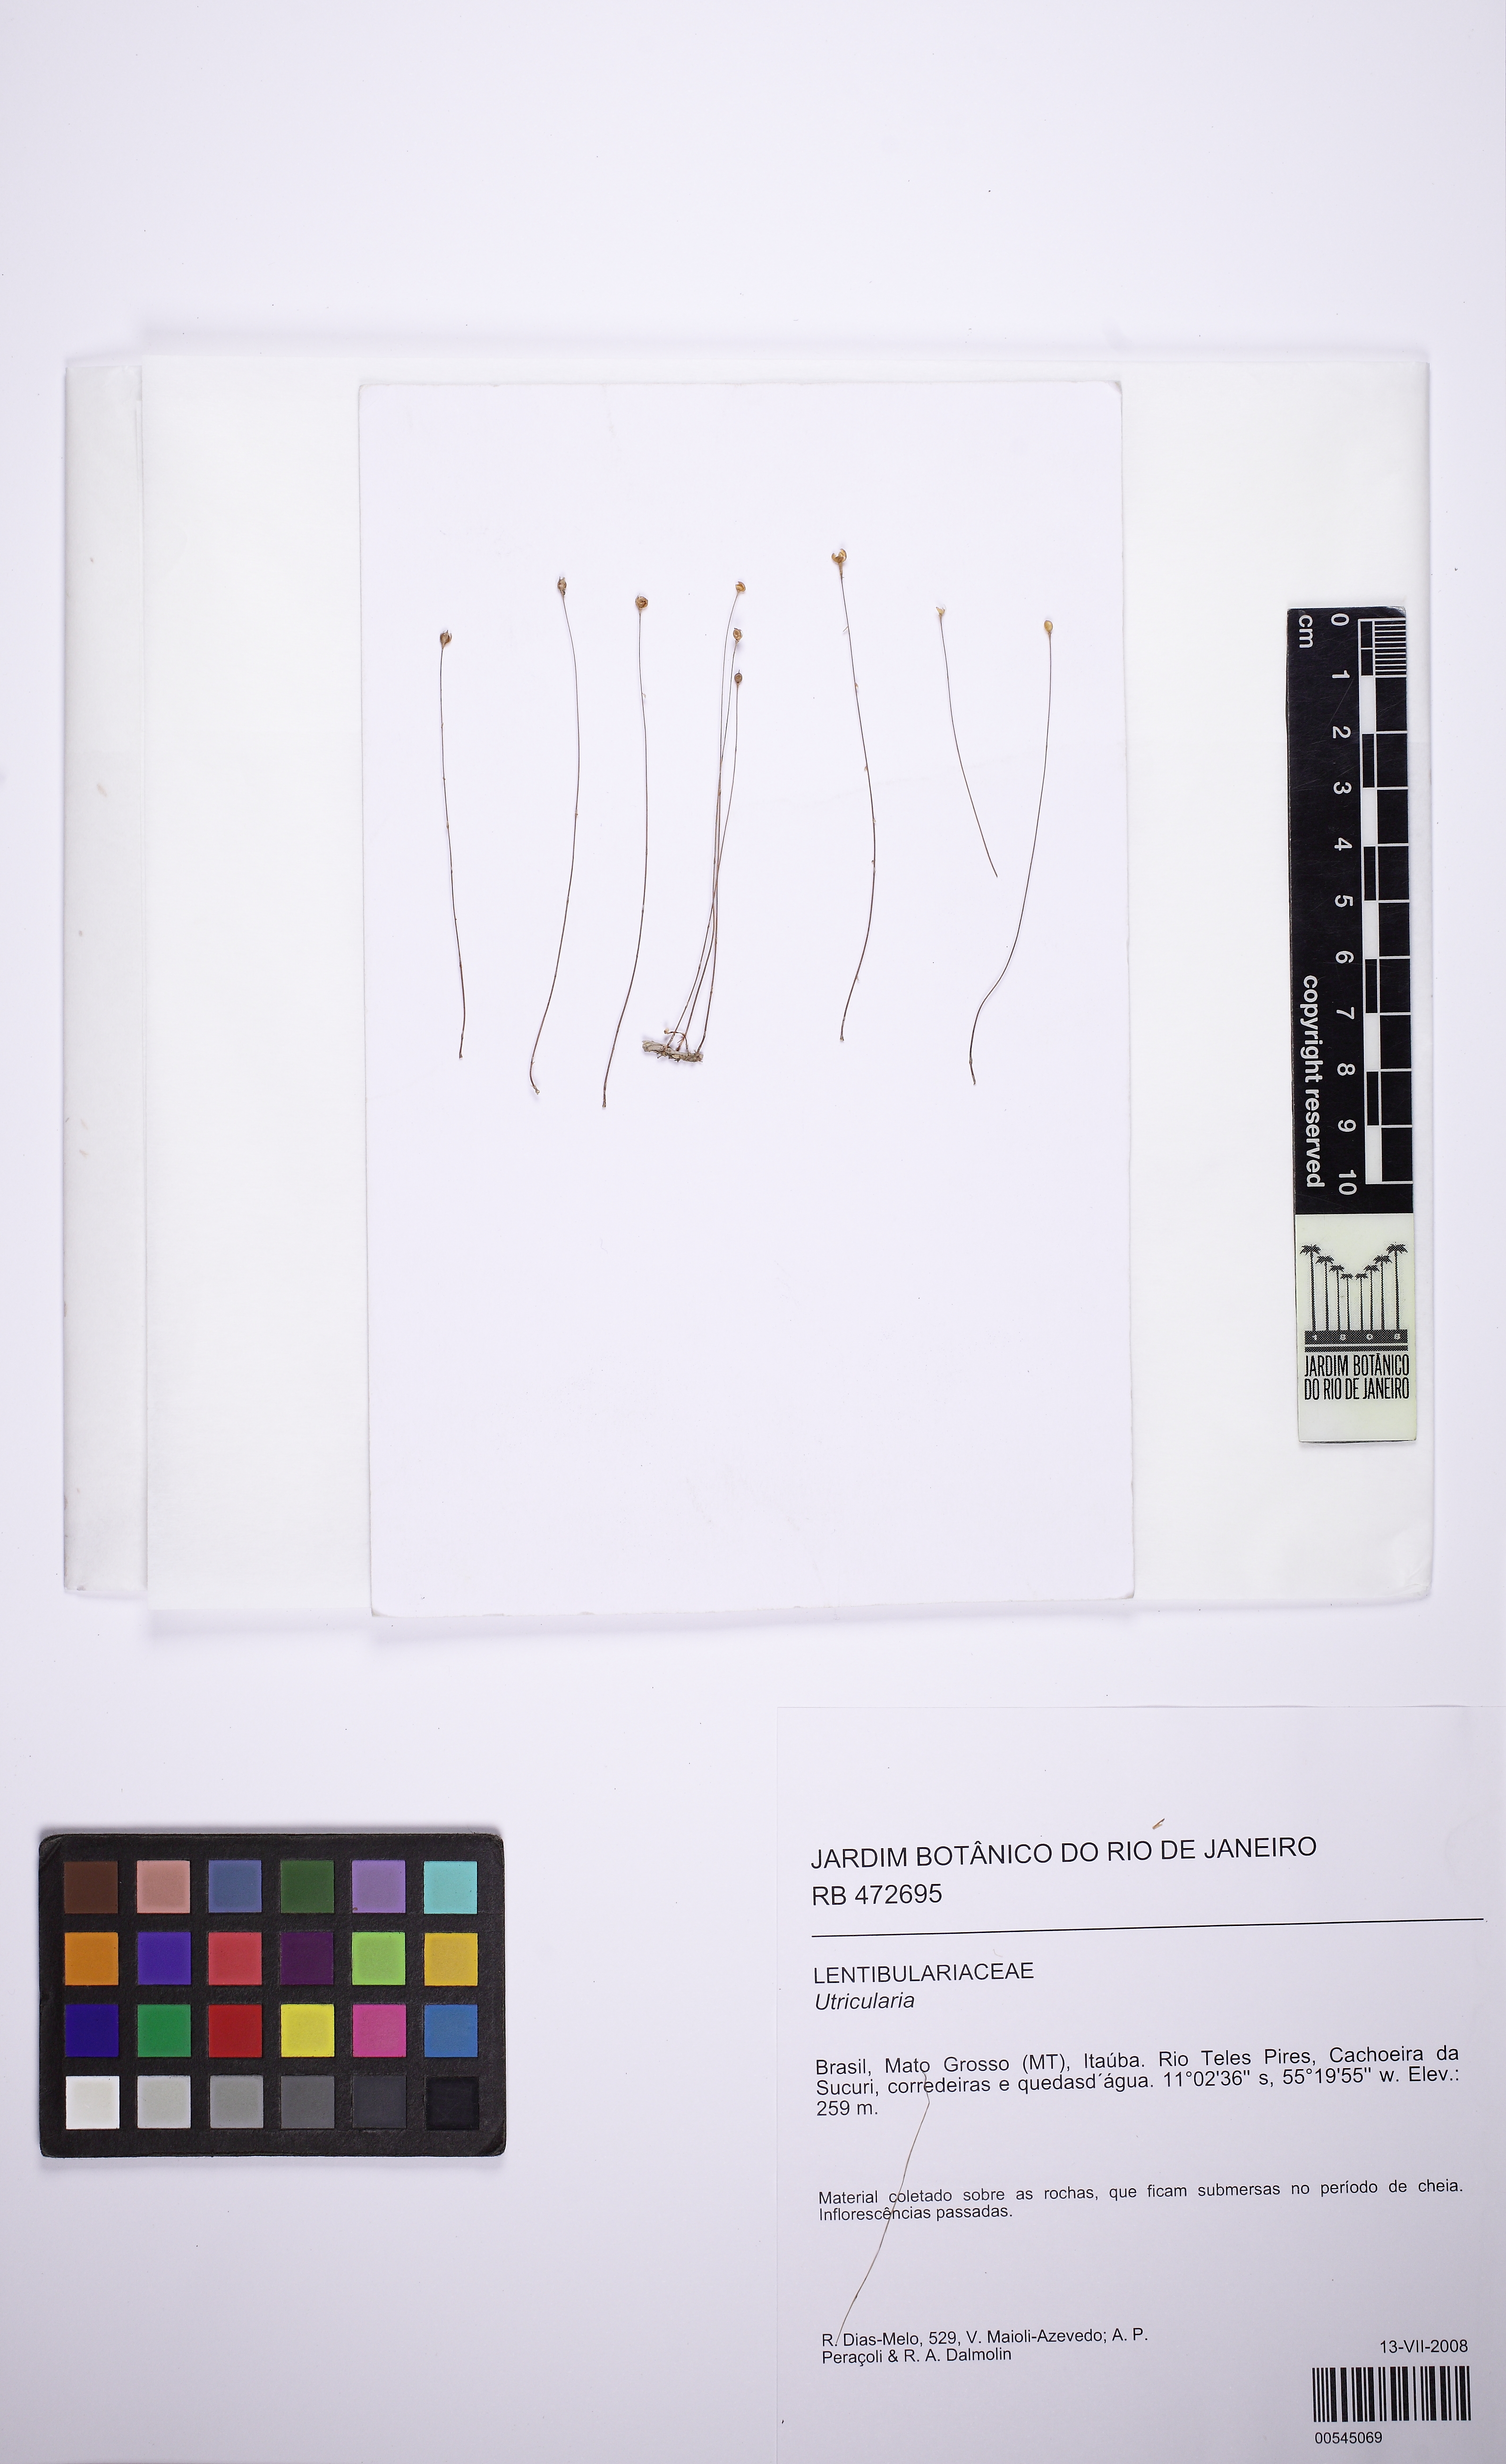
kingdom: Plantae
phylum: Tracheophyta
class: Magnoliopsida
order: Malpighiales
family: Podostemaceae
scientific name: Podostemaceae
